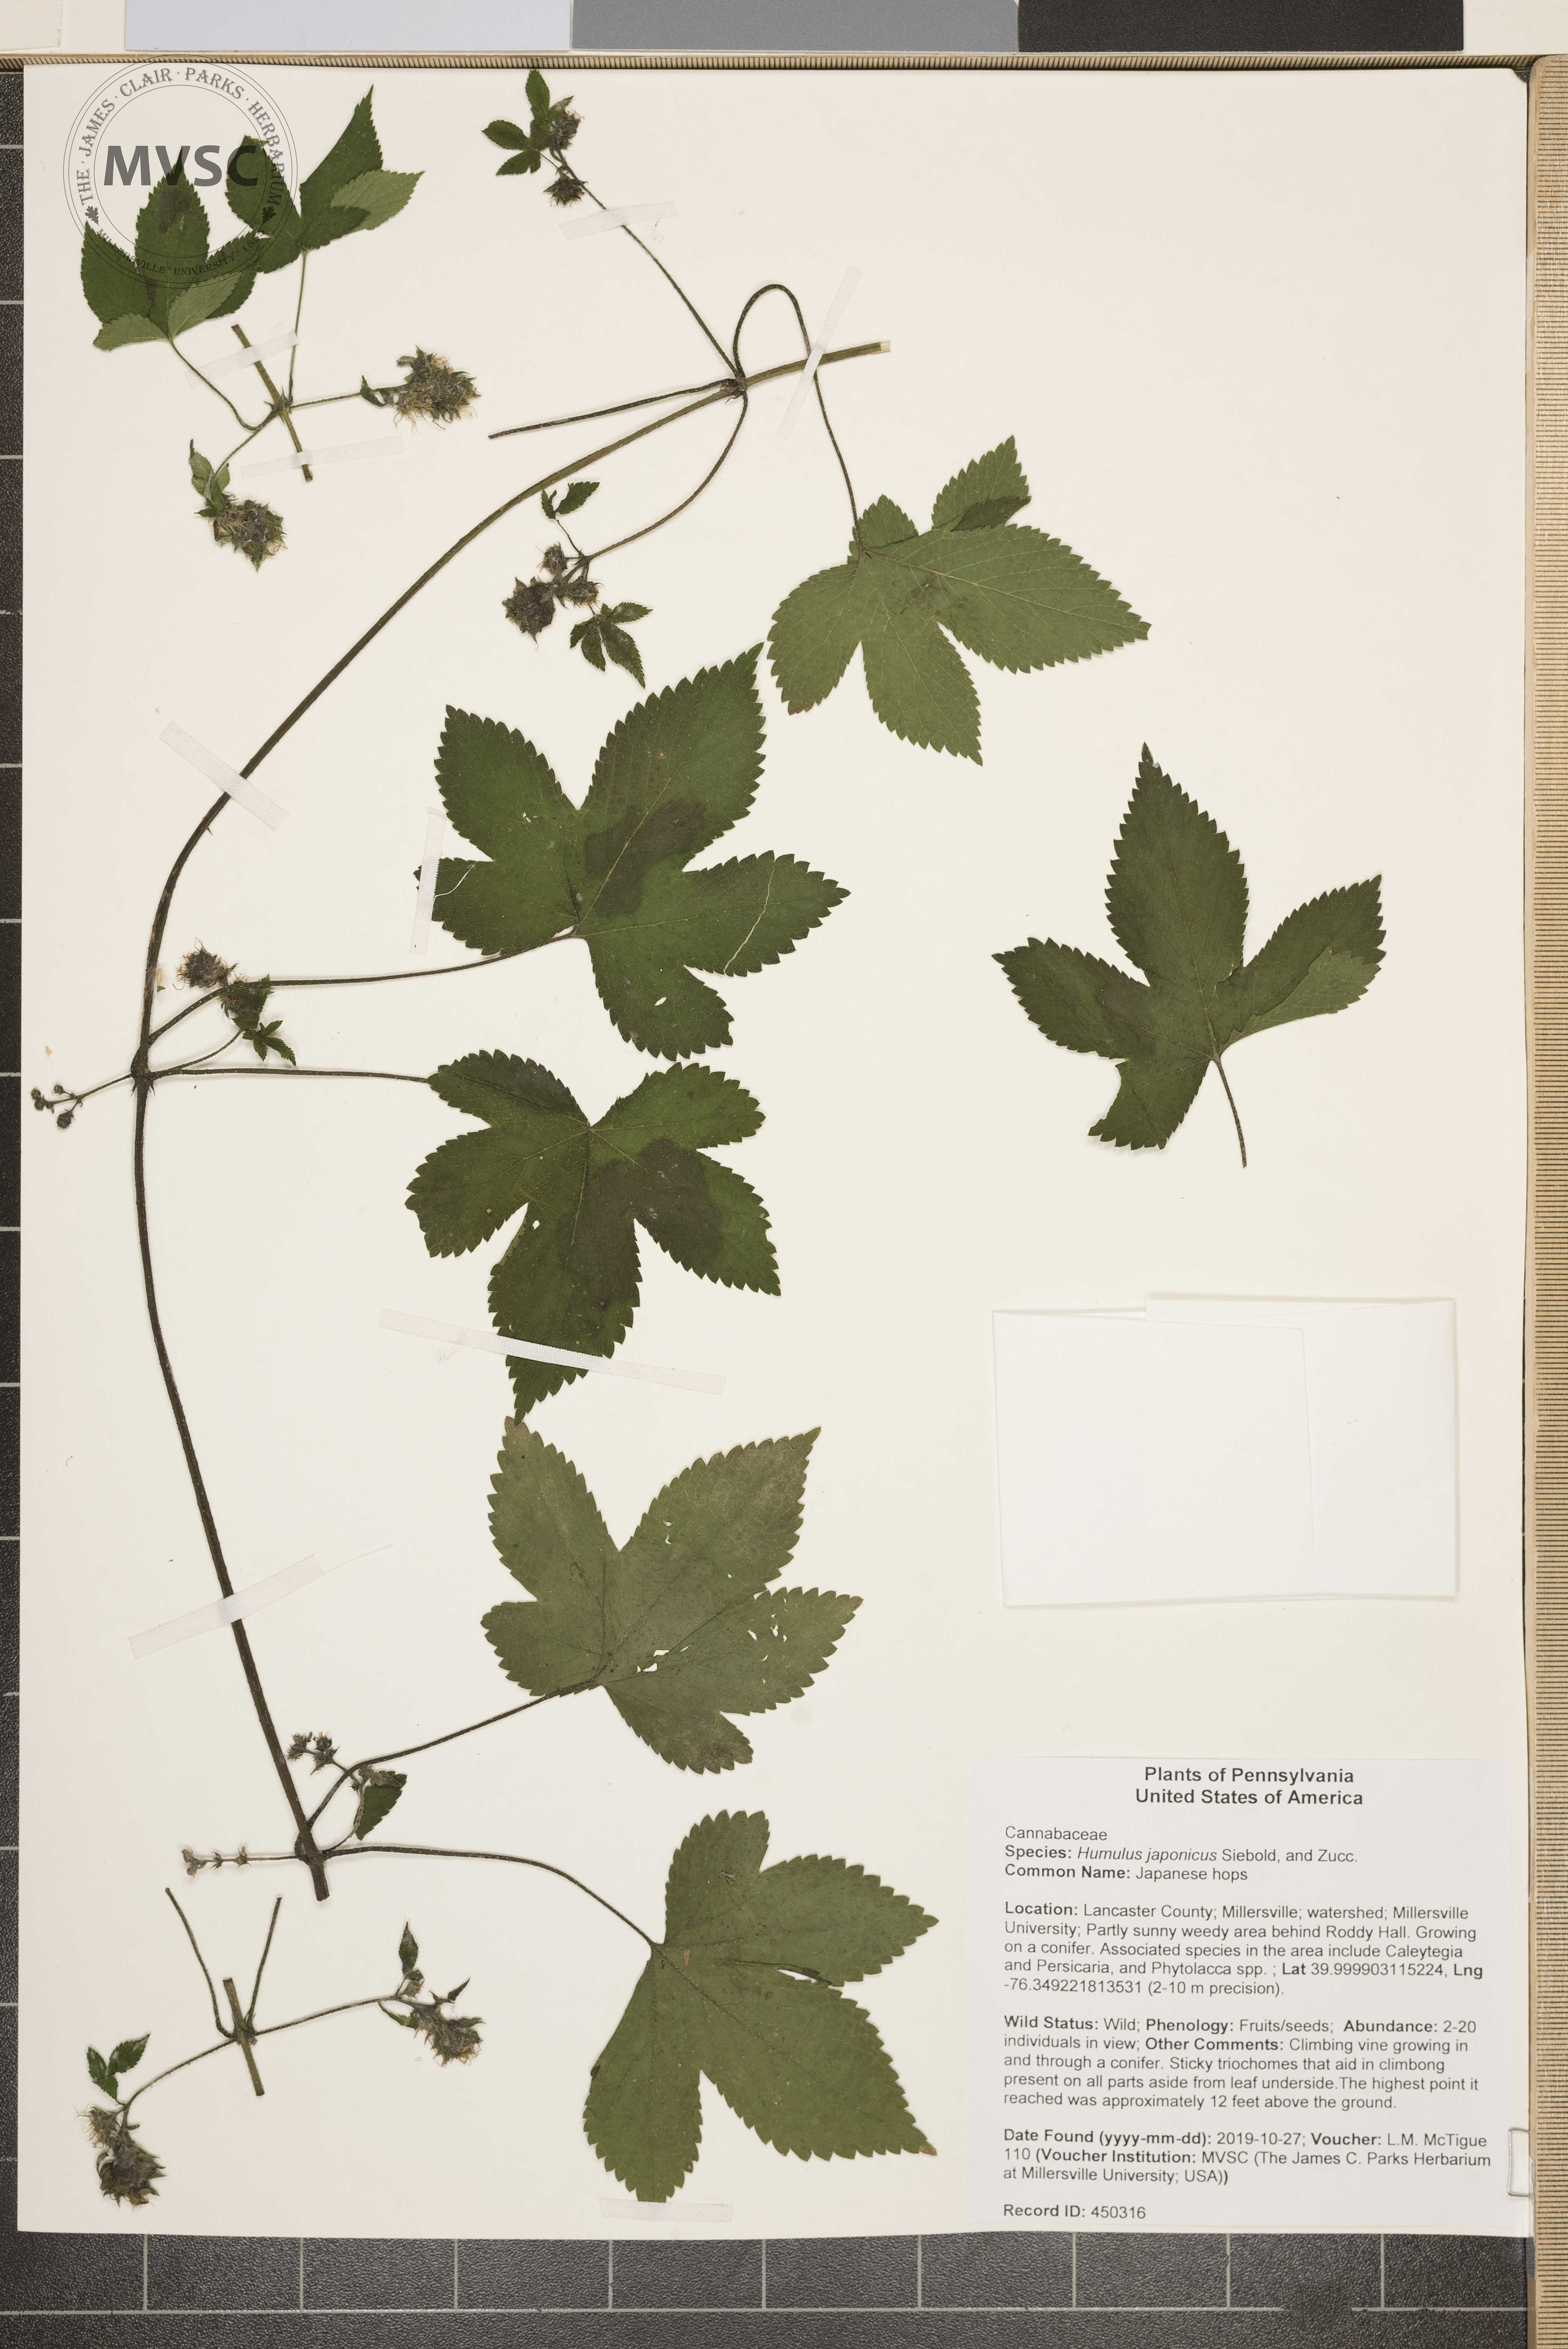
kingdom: Plantae
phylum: Tracheophyta
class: Magnoliopsida
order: Rosales
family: Cannabaceae
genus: Humulus
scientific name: Humulus scandens
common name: Japanese hops
